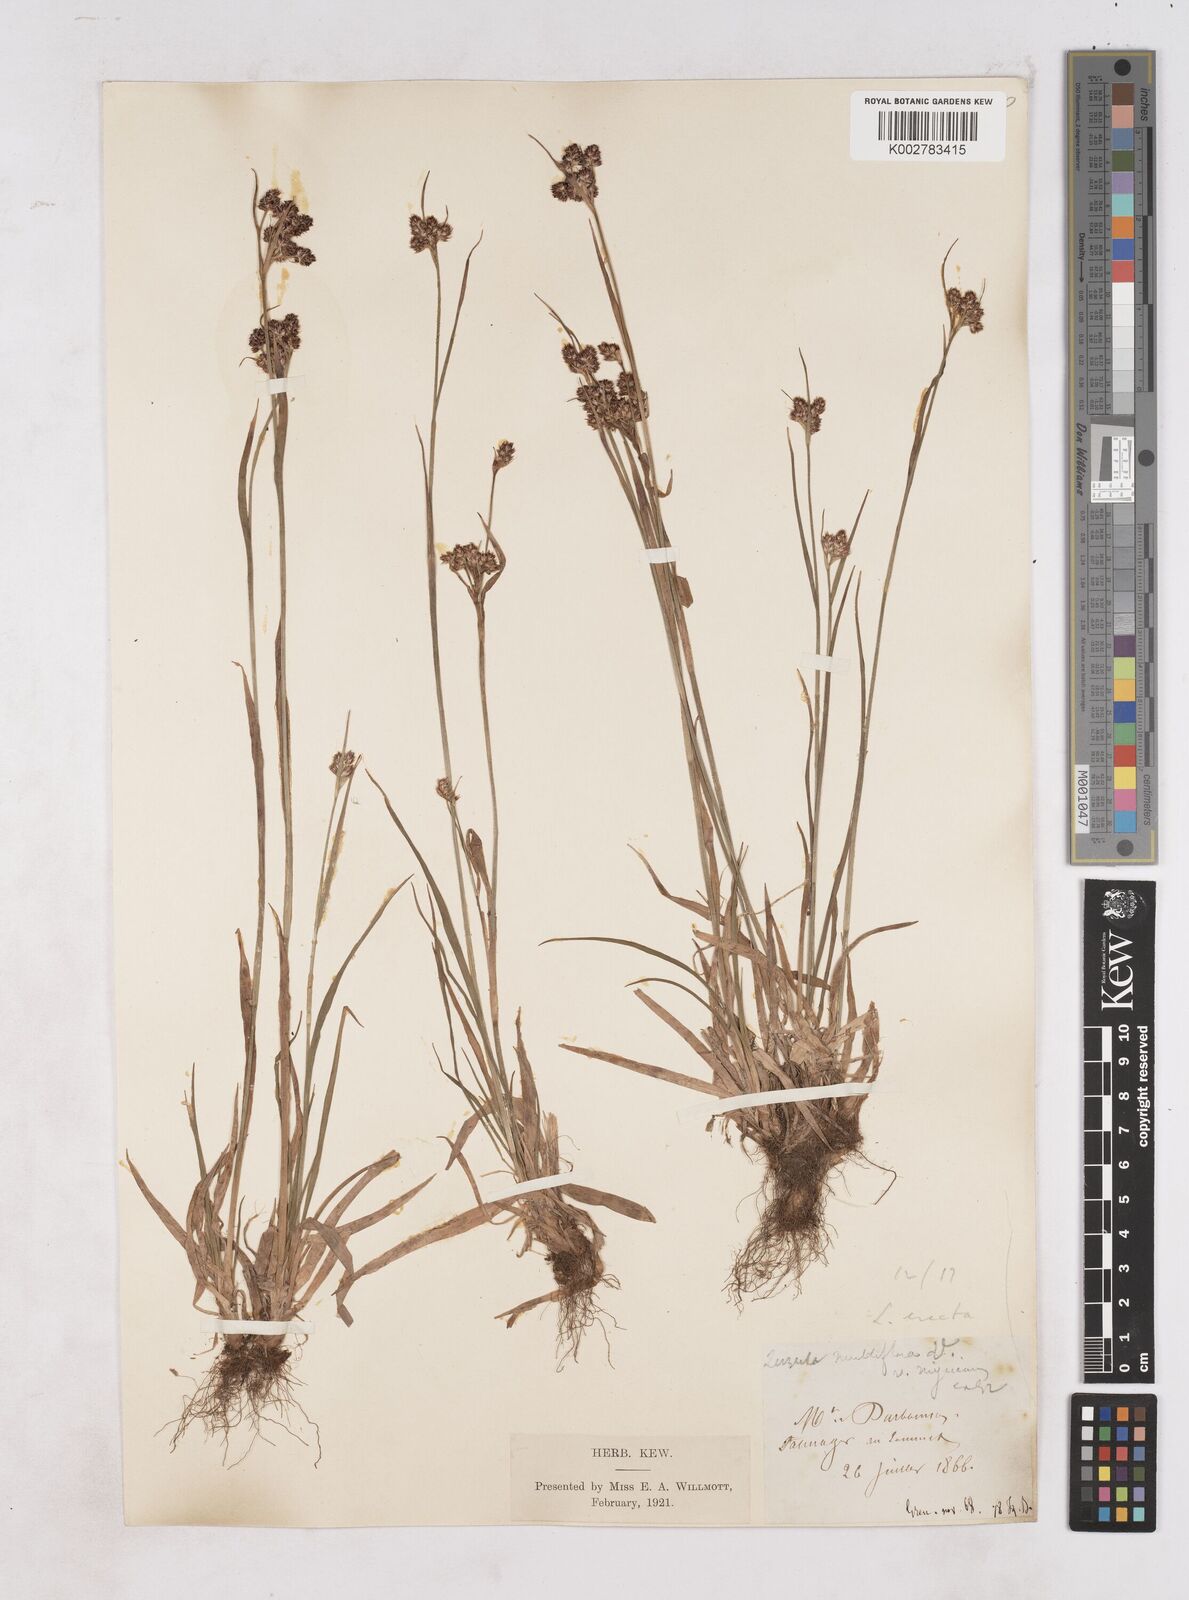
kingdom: Plantae
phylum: Tracheophyta
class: Liliopsida
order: Poales
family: Juncaceae
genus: Luzula
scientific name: Luzula multiflora
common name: Heath wood-rush
